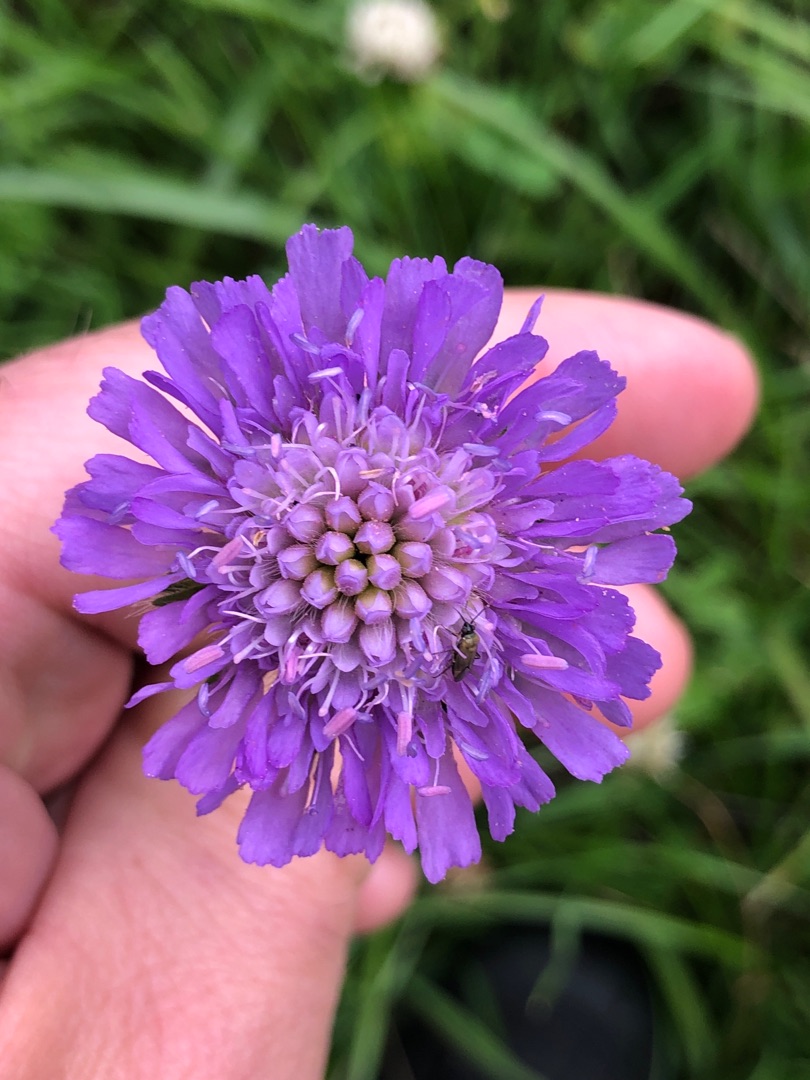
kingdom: Plantae
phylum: Tracheophyta
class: Magnoliopsida
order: Dipsacales
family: Caprifoliaceae
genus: Knautia
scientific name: Knautia arvensis
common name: Blåhat
